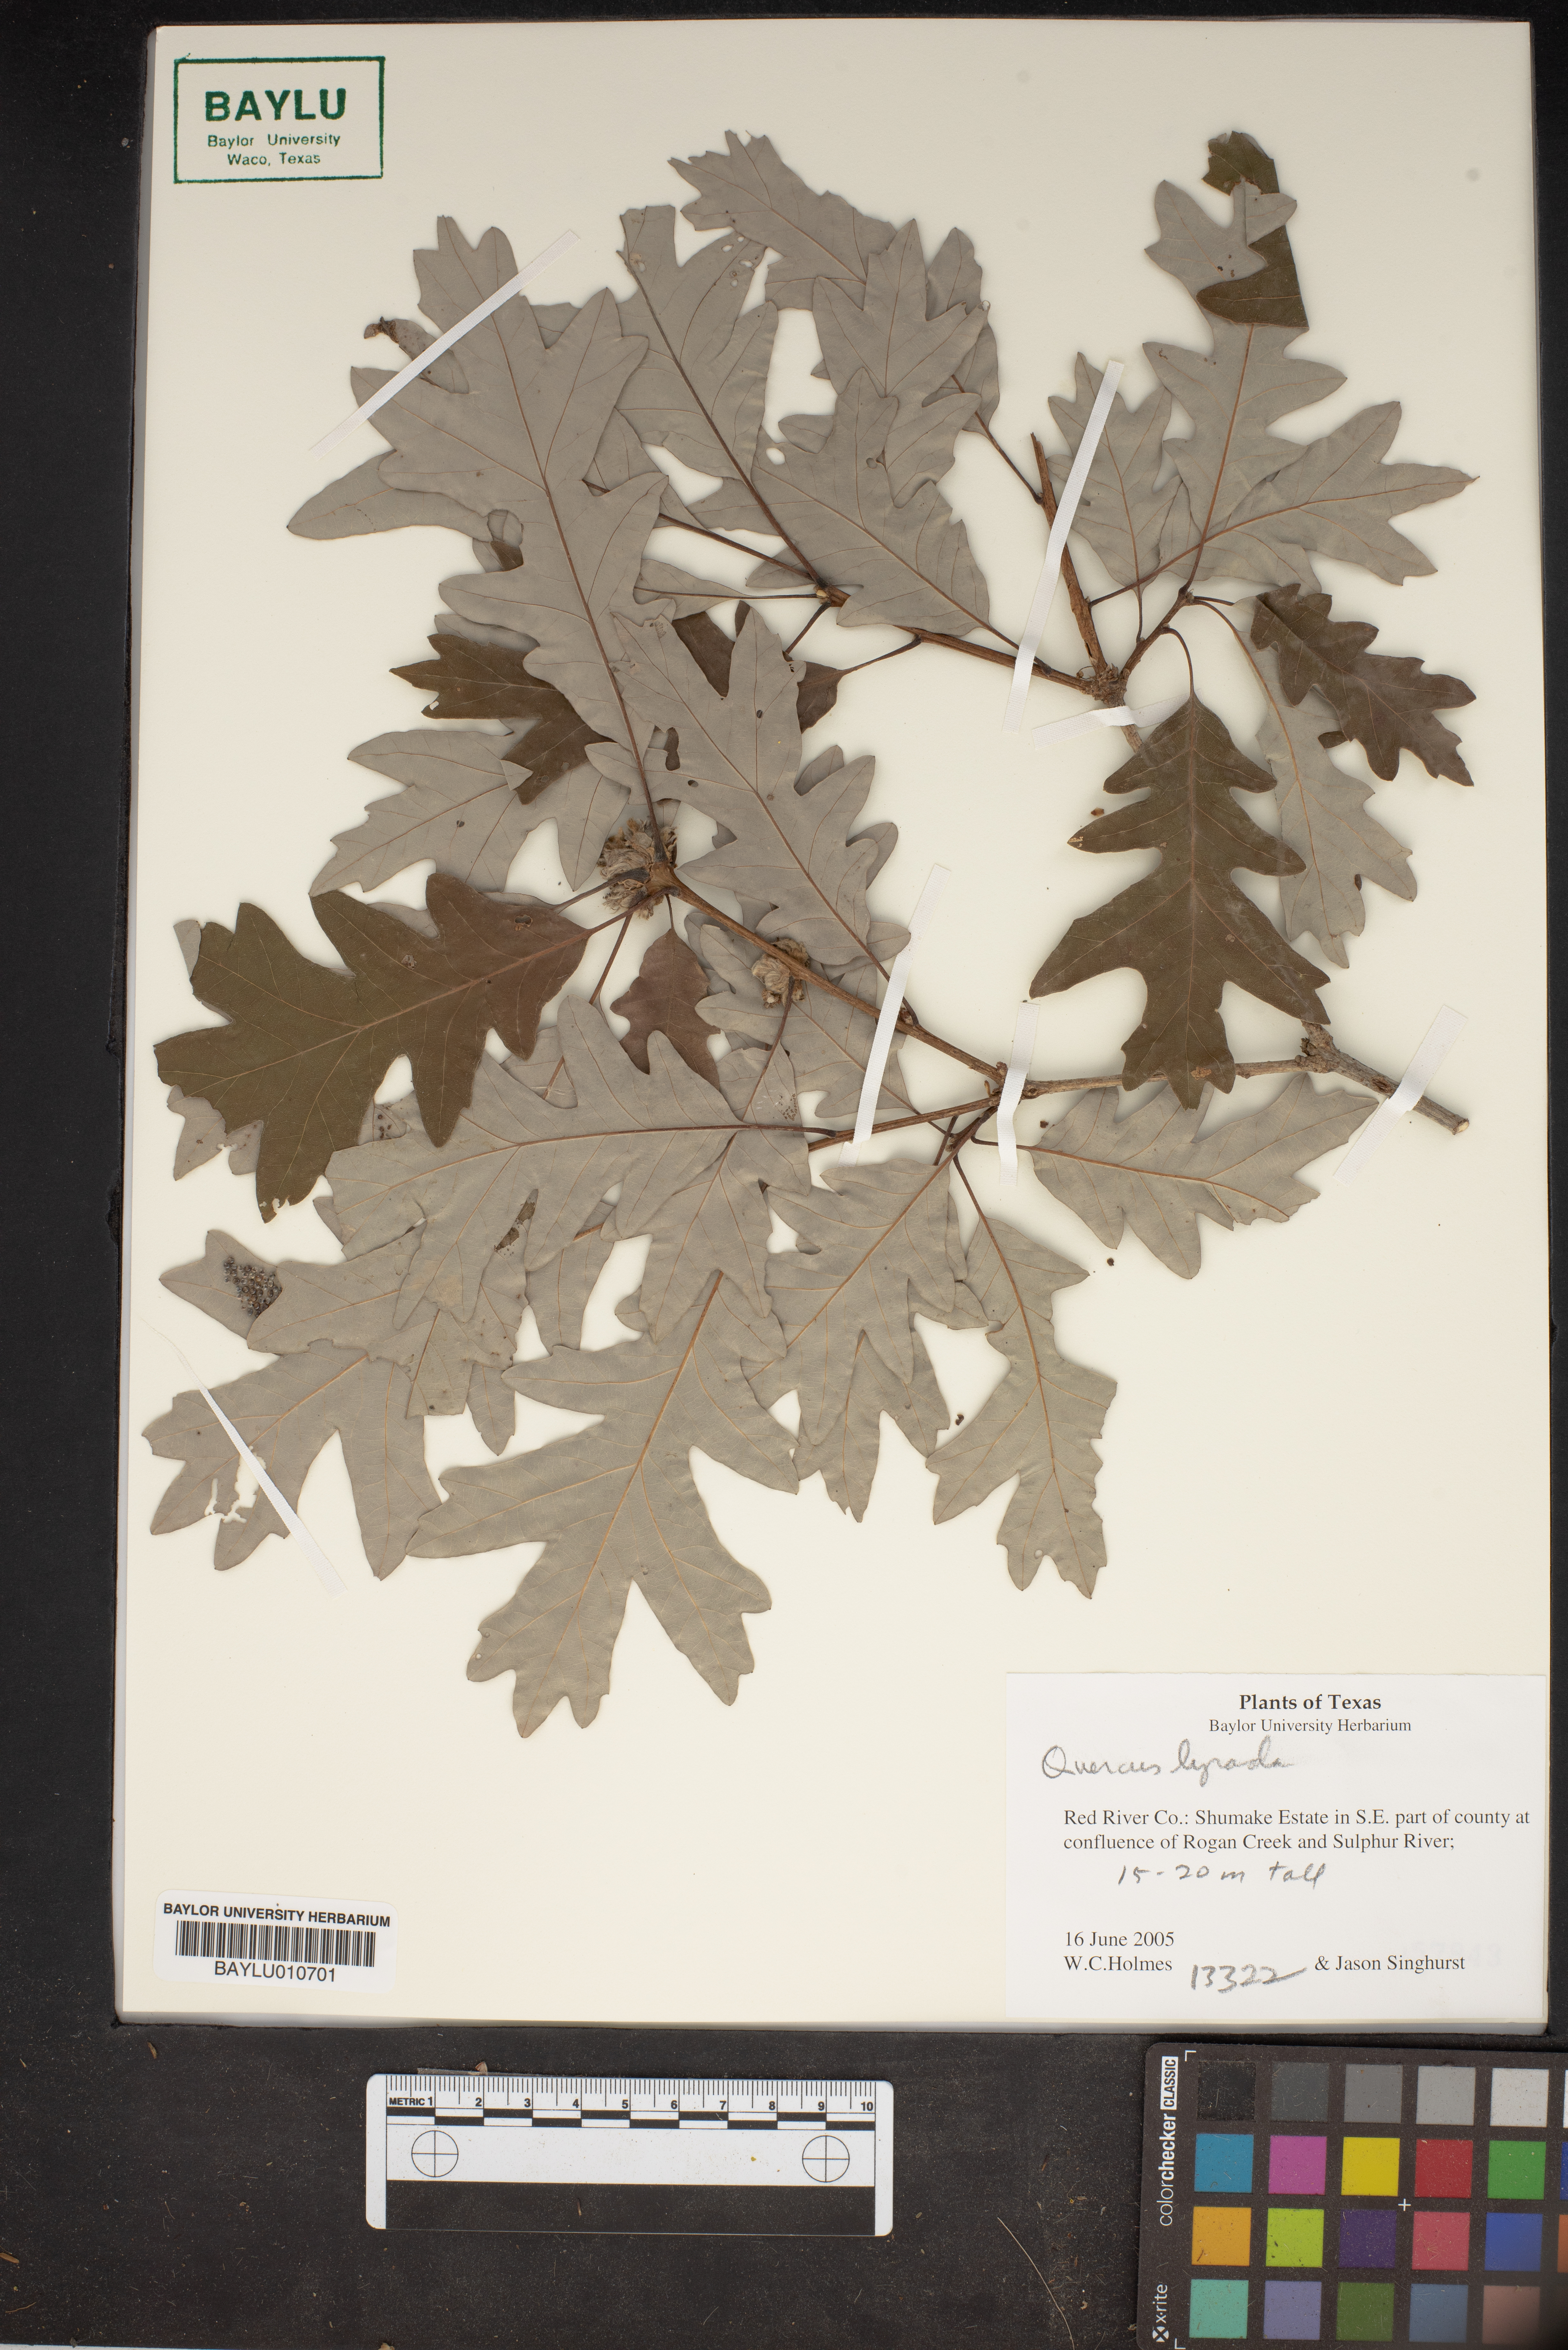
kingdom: Plantae
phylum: Tracheophyta
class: Magnoliopsida
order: Fagales
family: Fagaceae
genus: Quercus
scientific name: Quercus lyrata
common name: Overcup oak
